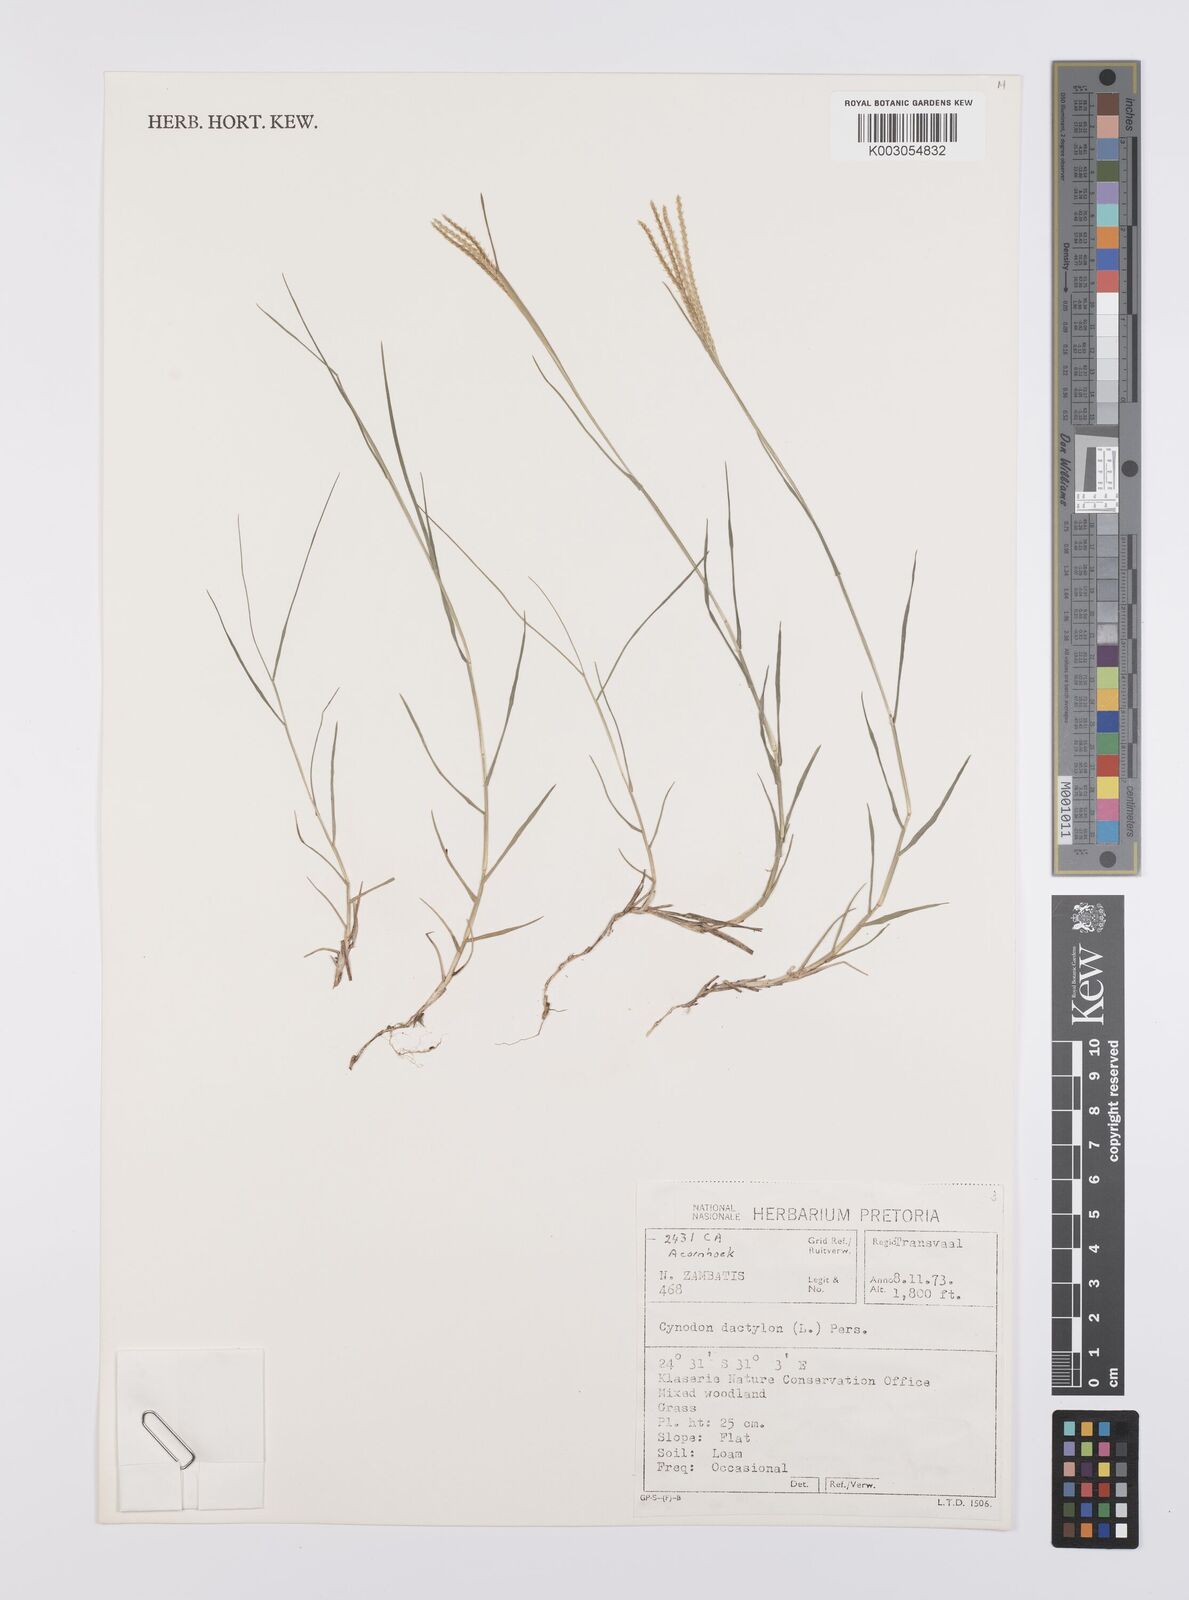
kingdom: Plantae
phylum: Tracheophyta
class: Liliopsida
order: Poales
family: Poaceae
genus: Cynodon
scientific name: Cynodon dactylon
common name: Bermuda grass
